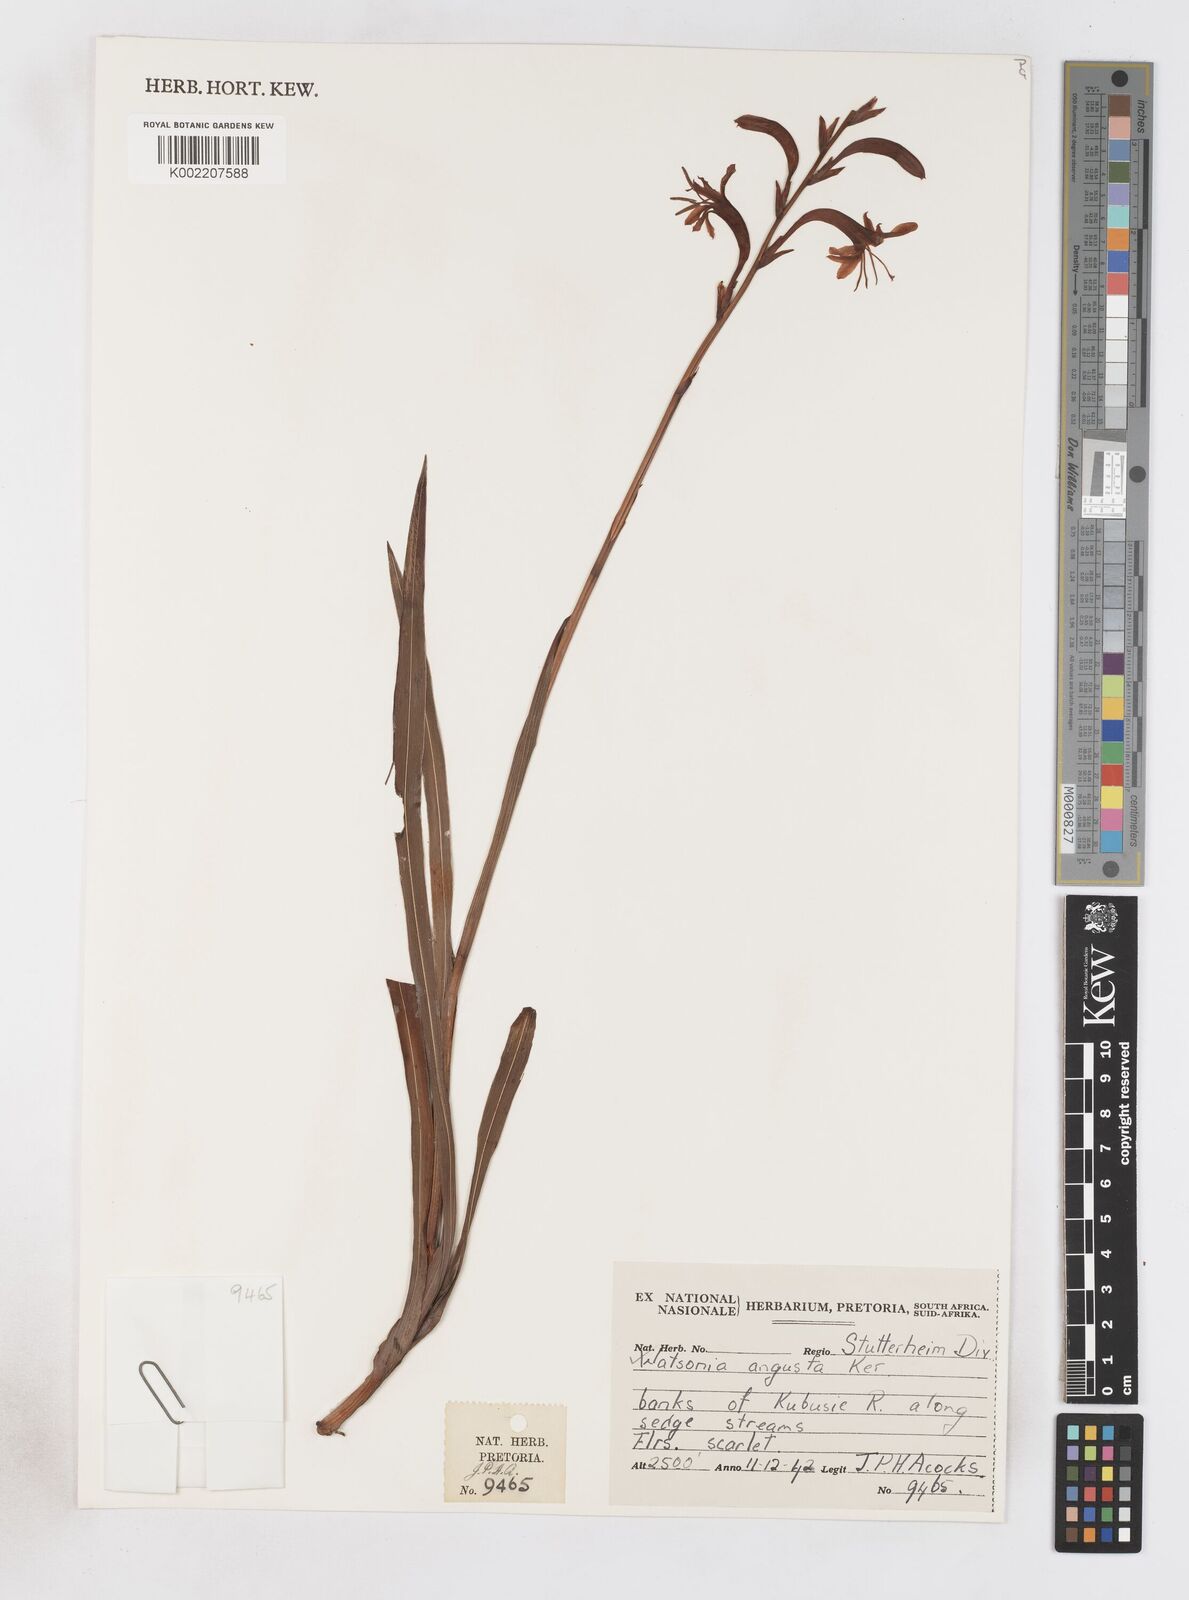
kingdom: Plantae
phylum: Tracheophyta
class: Liliopsida
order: Asparagales
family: Iridaceae
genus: Watsonia
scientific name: Watsonia angusta
